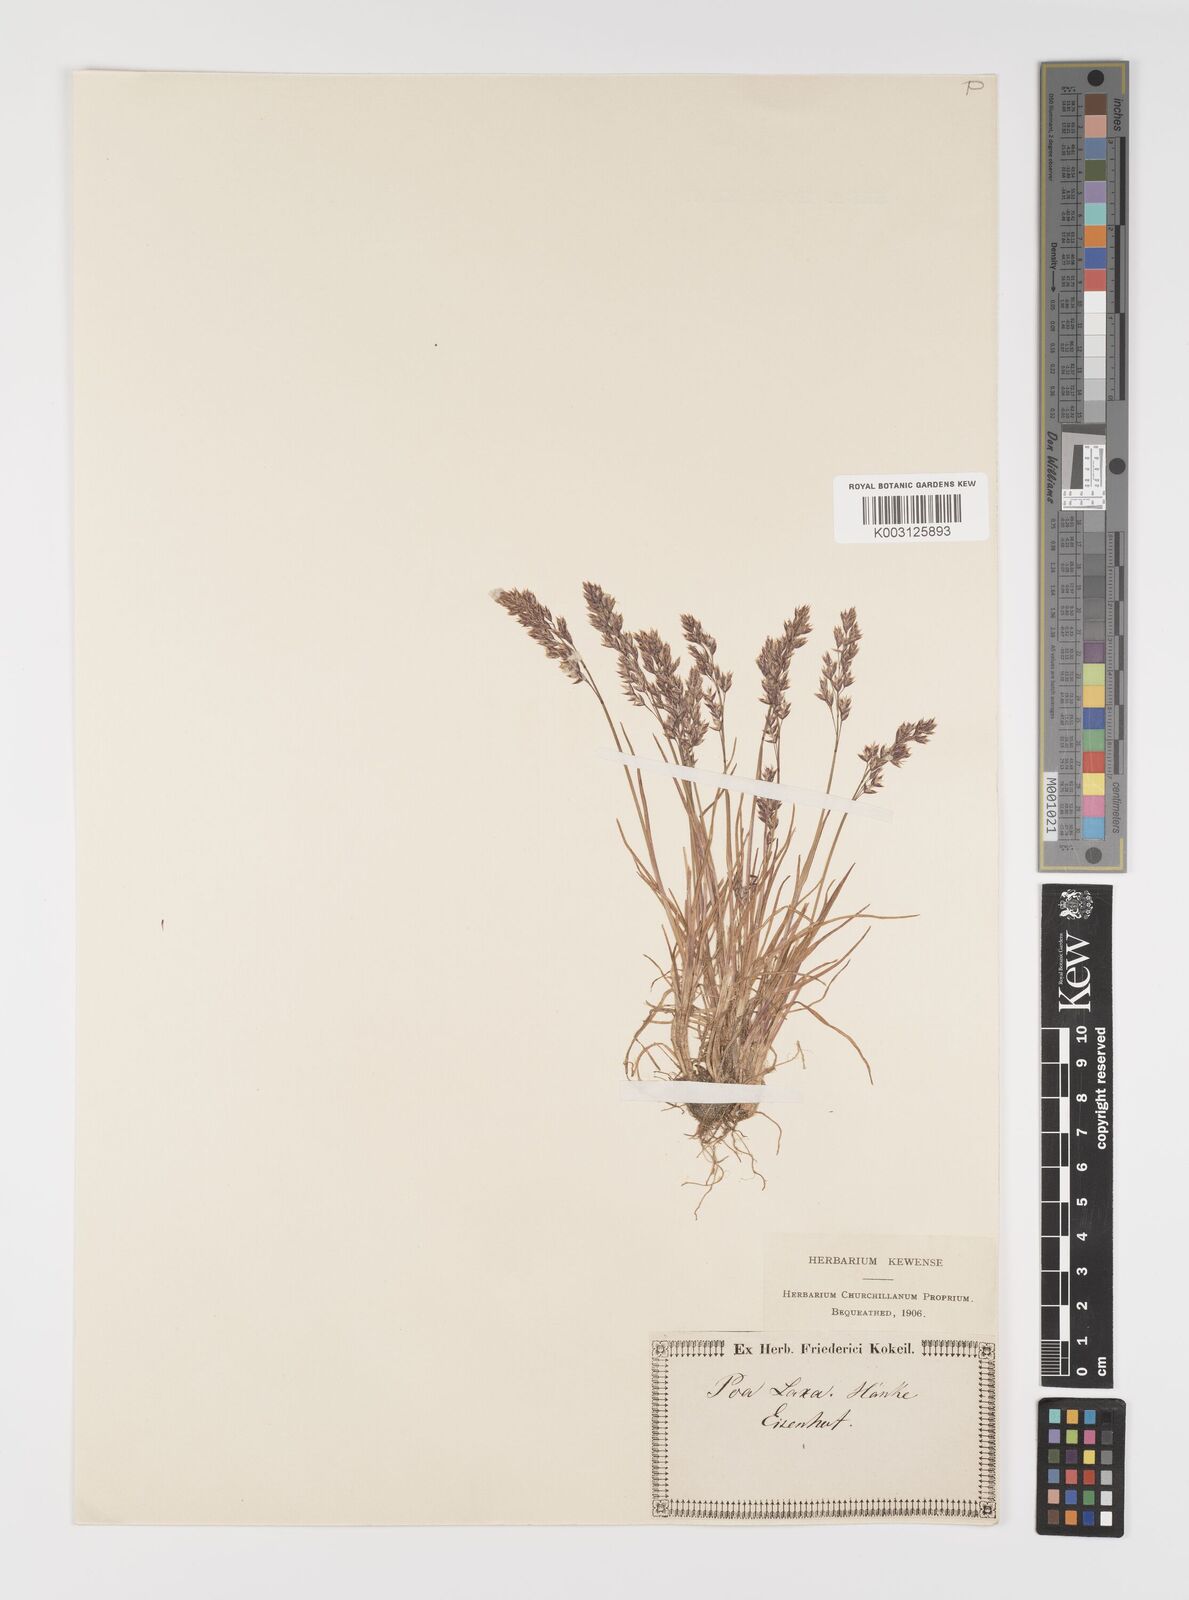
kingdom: Plantae
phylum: Tracheophyta
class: Liliopsida
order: Poales
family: Poaceae
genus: Poa
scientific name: Poa laxa
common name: Lax bluegrass
